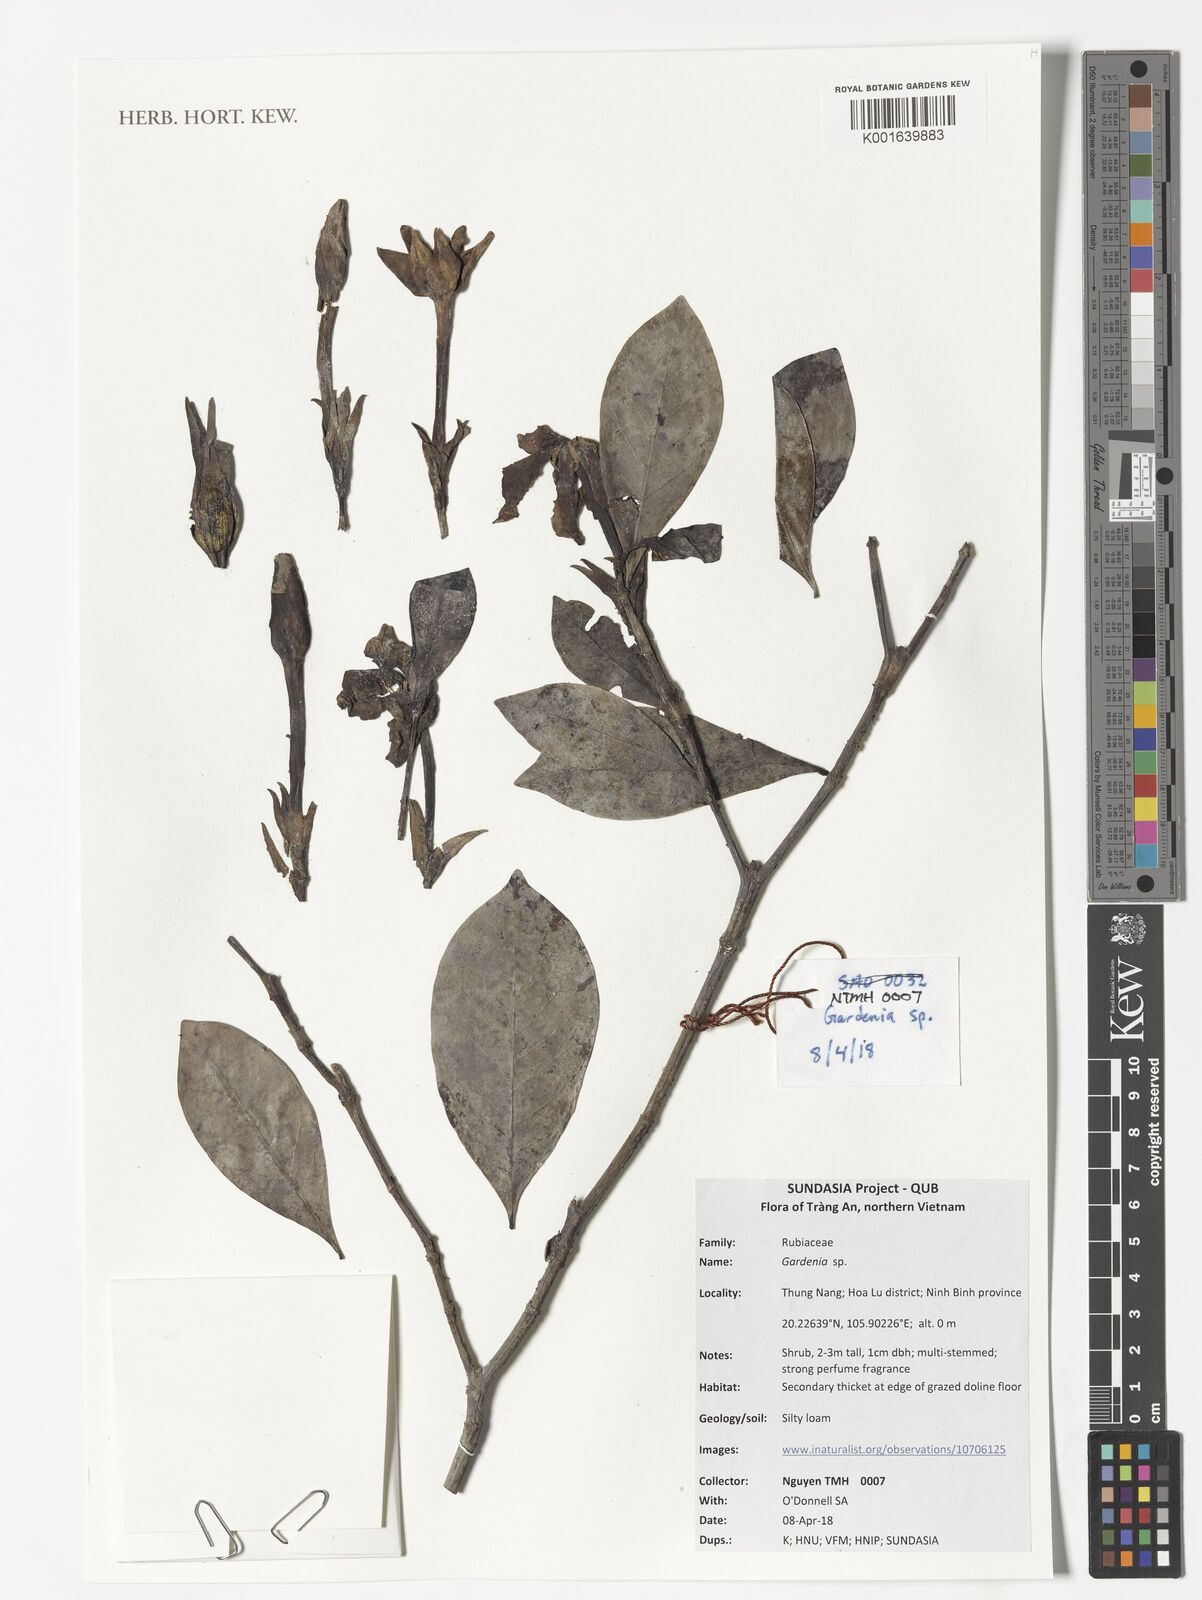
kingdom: Plantae
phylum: Tracheophyta
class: Magnoliopsida
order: Gentianales
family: Rubiaceae
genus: Gardenia
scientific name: Gardenia
